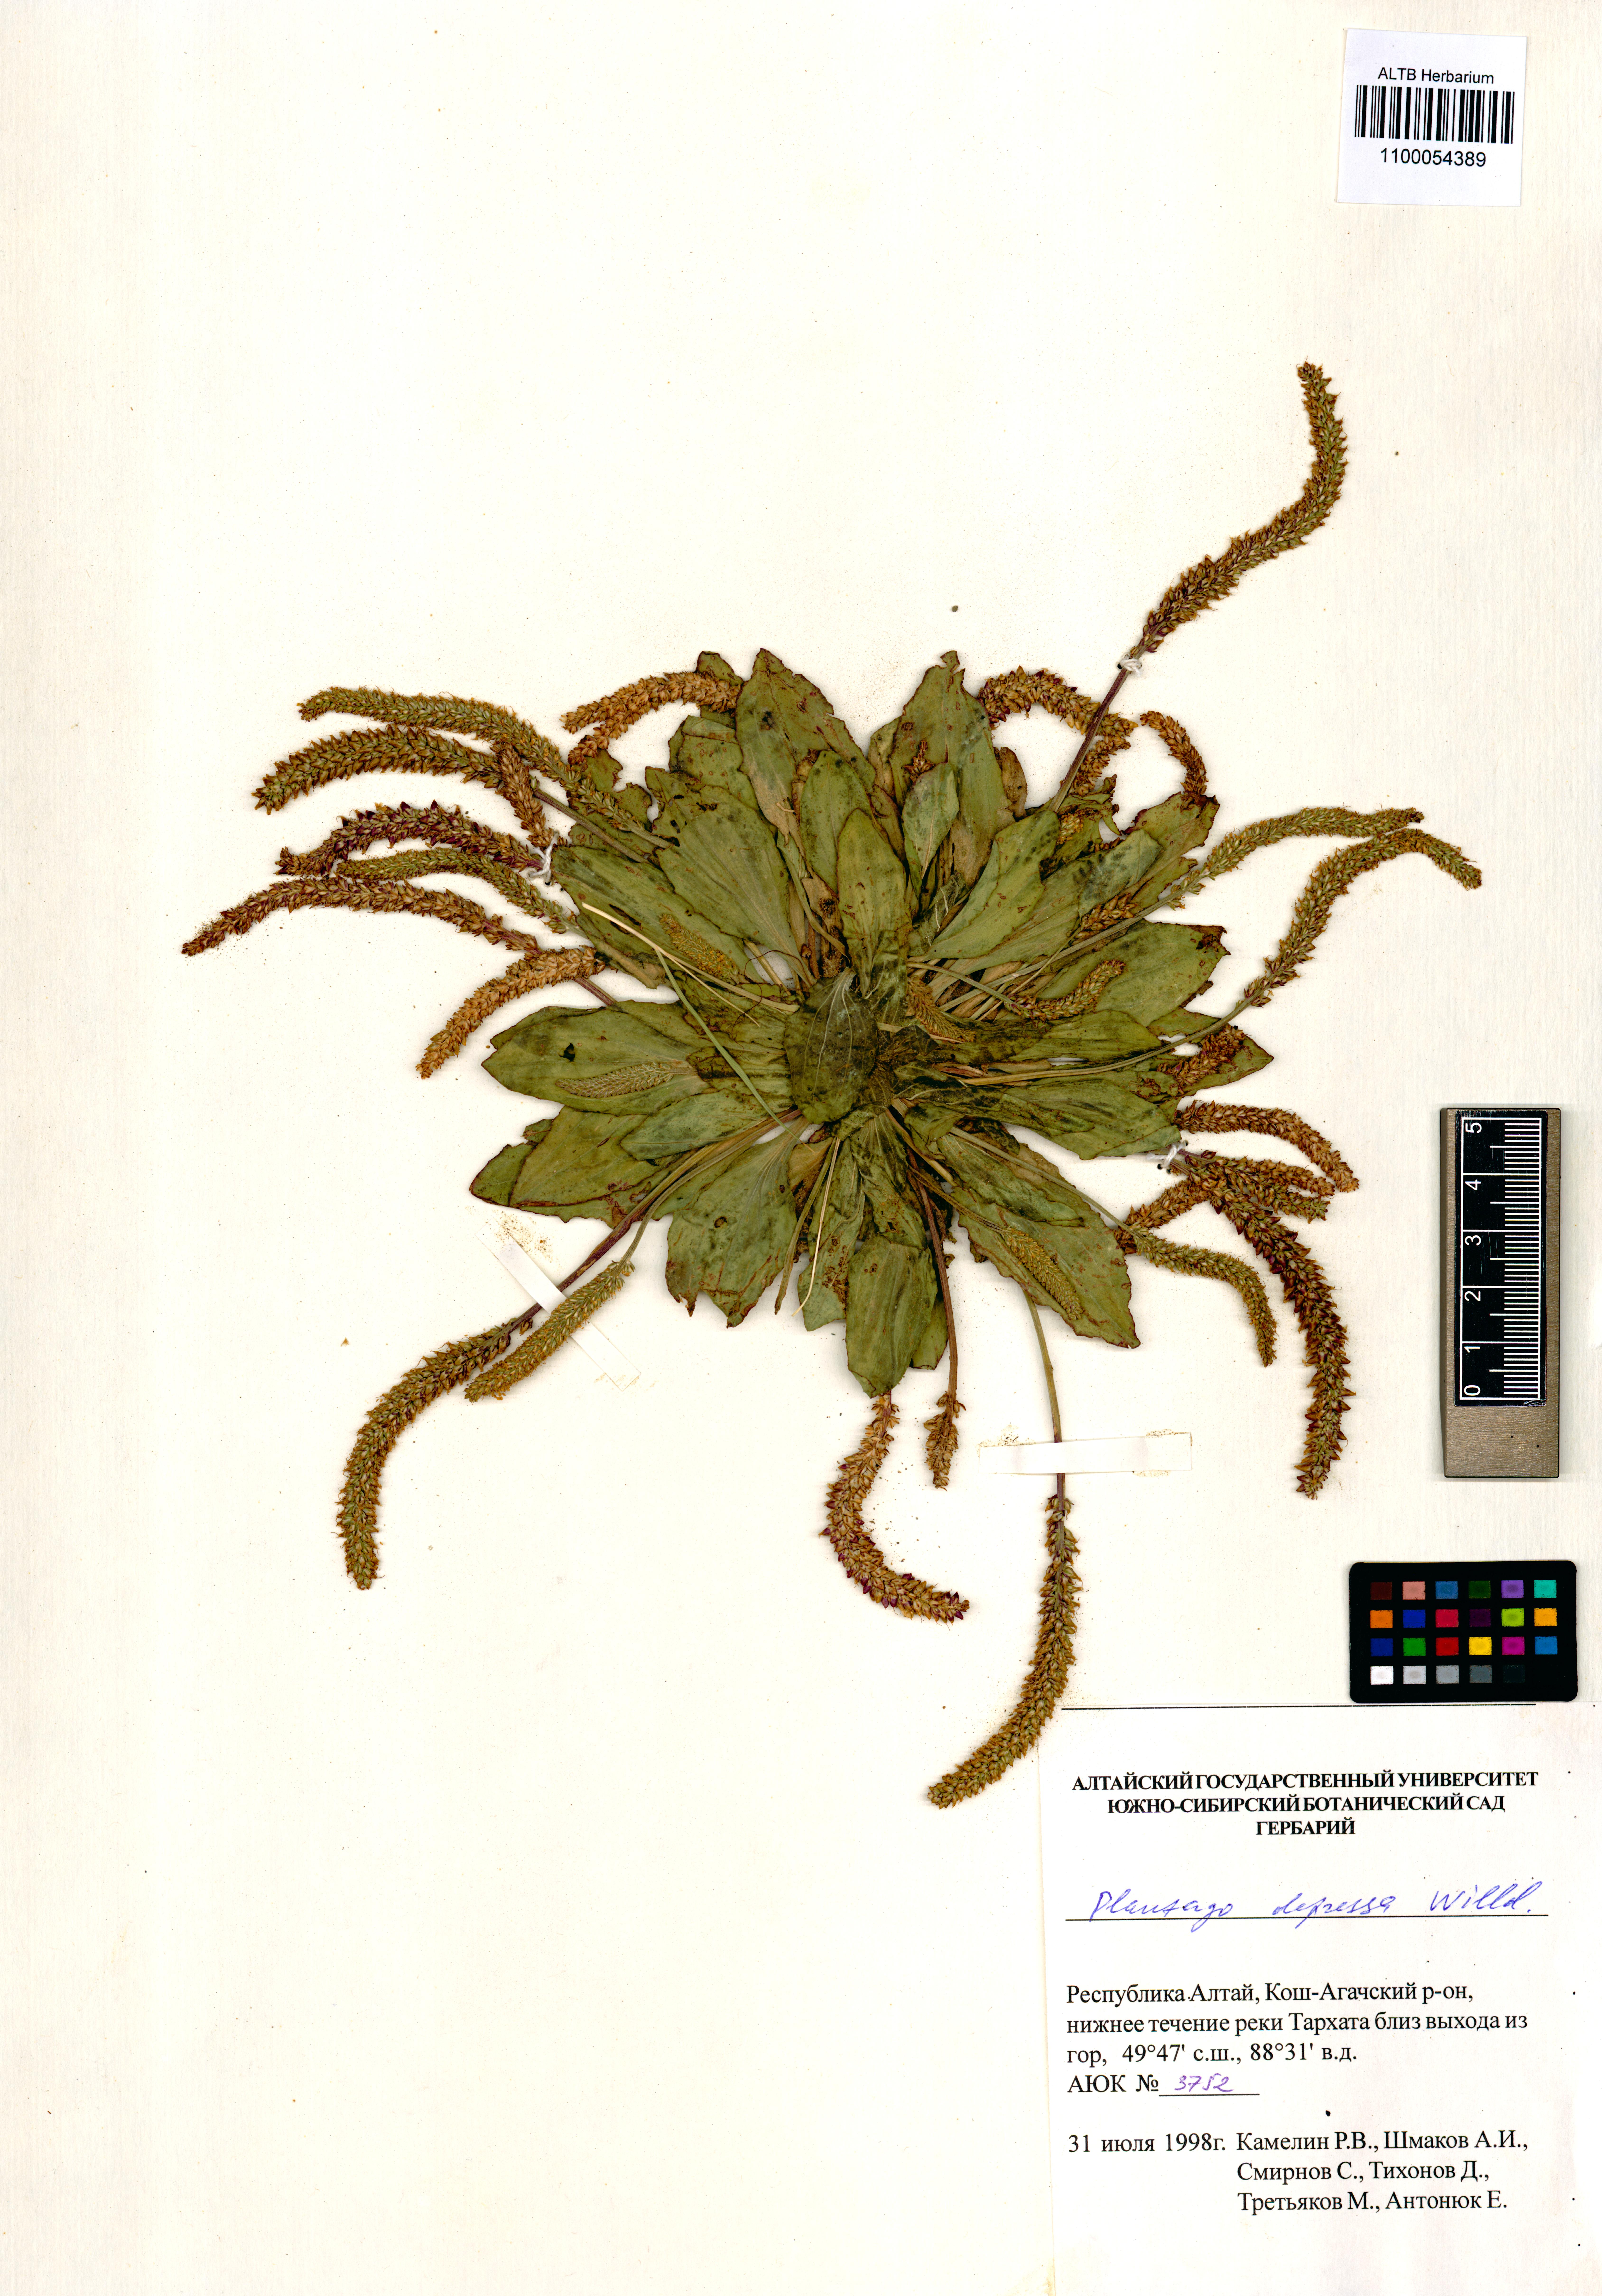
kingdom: Plantae
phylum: Tracheophyta
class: Magnoliopsida
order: Lamiales
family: Plantaginaceae
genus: Plantago
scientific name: Plantago depressa
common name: Depressed plantain
